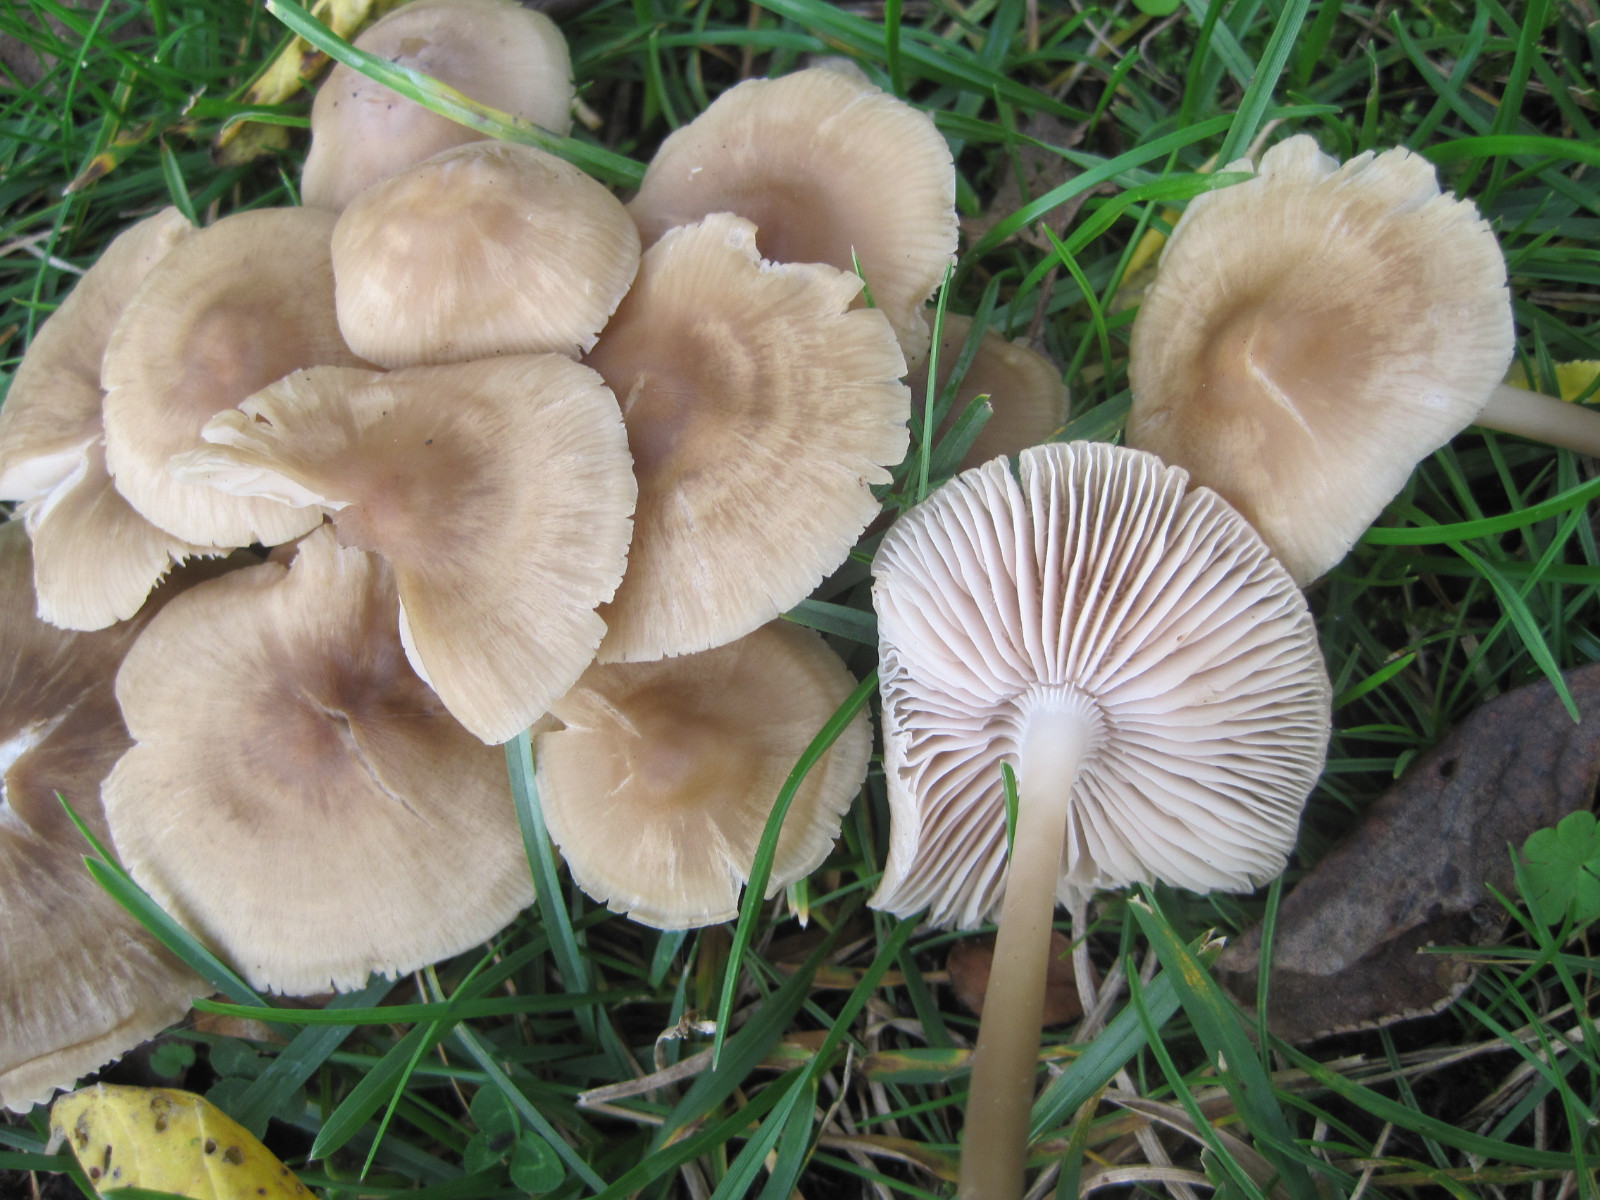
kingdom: Fungi
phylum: Basidiomycota
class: Agaricomycetes
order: Agaricales
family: Mycenaceae
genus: Mycena
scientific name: Mycena galericulata
